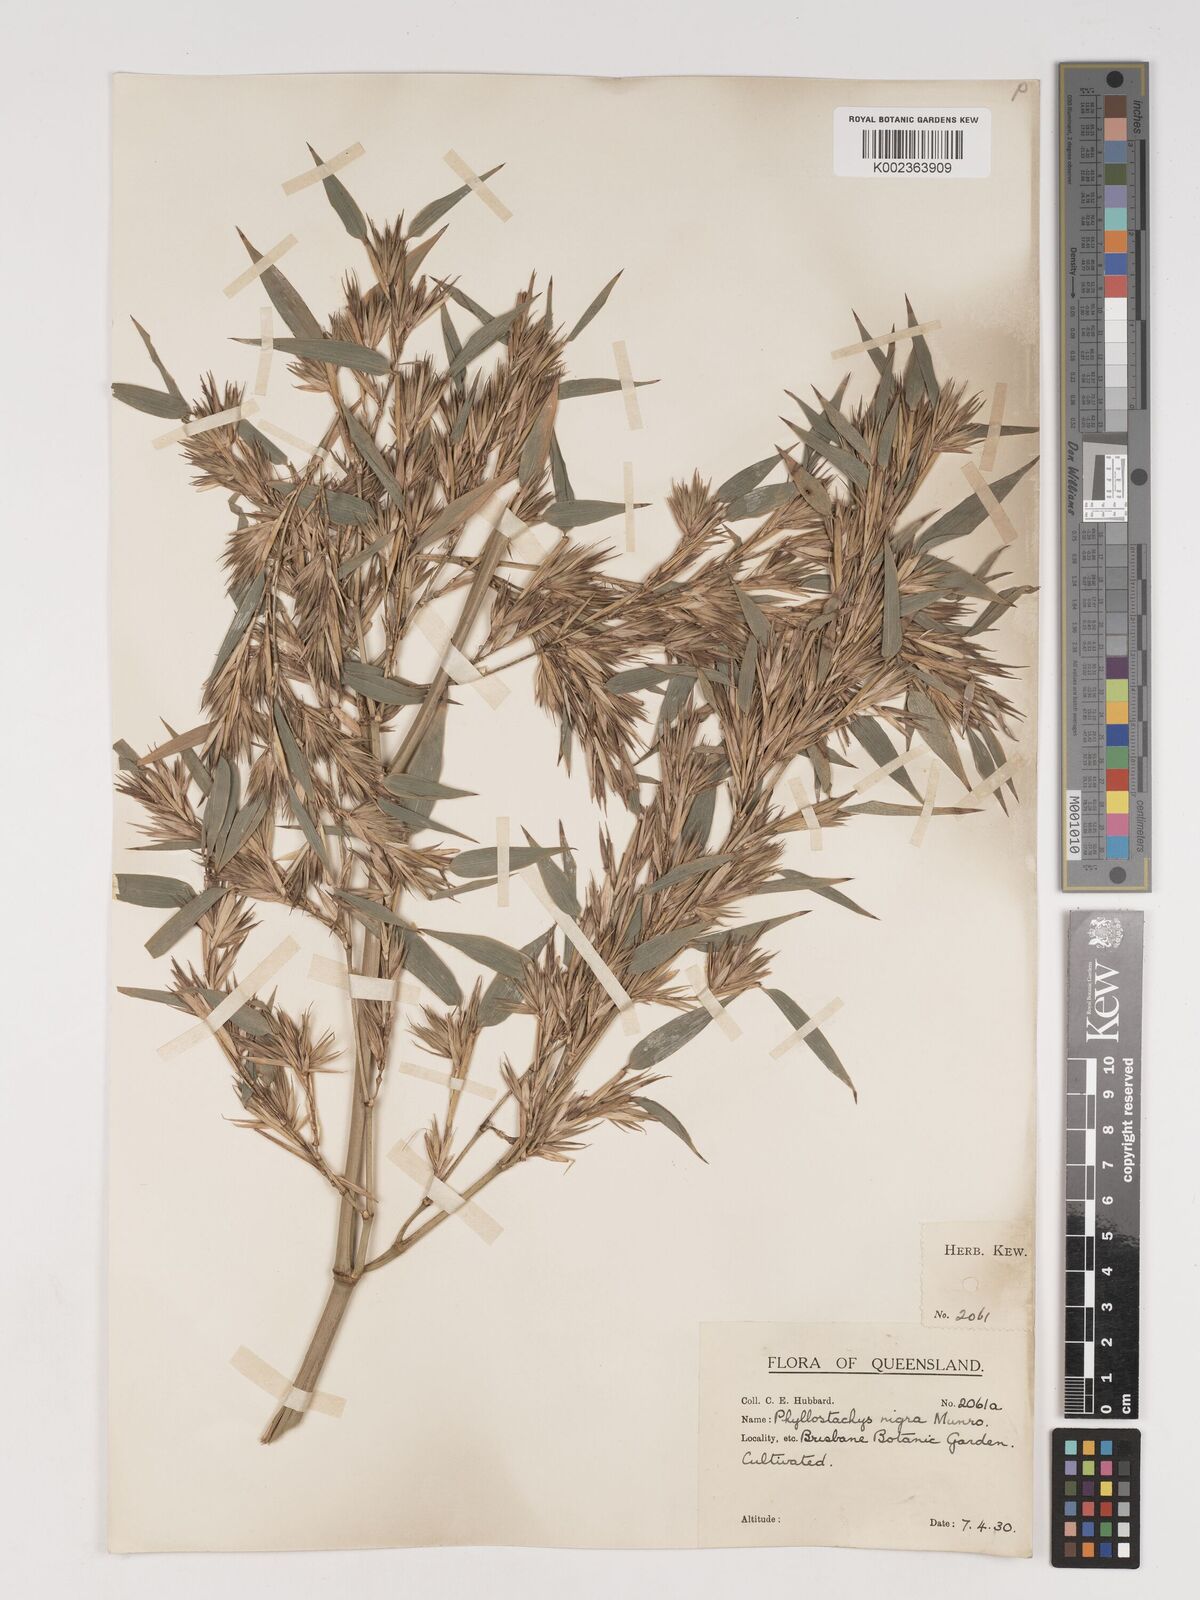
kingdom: Plantae
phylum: Tracheophyta
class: Liliopsida
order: Poales
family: Poaceae
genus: Phyllostachys
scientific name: Phyllostachys nigra
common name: Black bamboo
